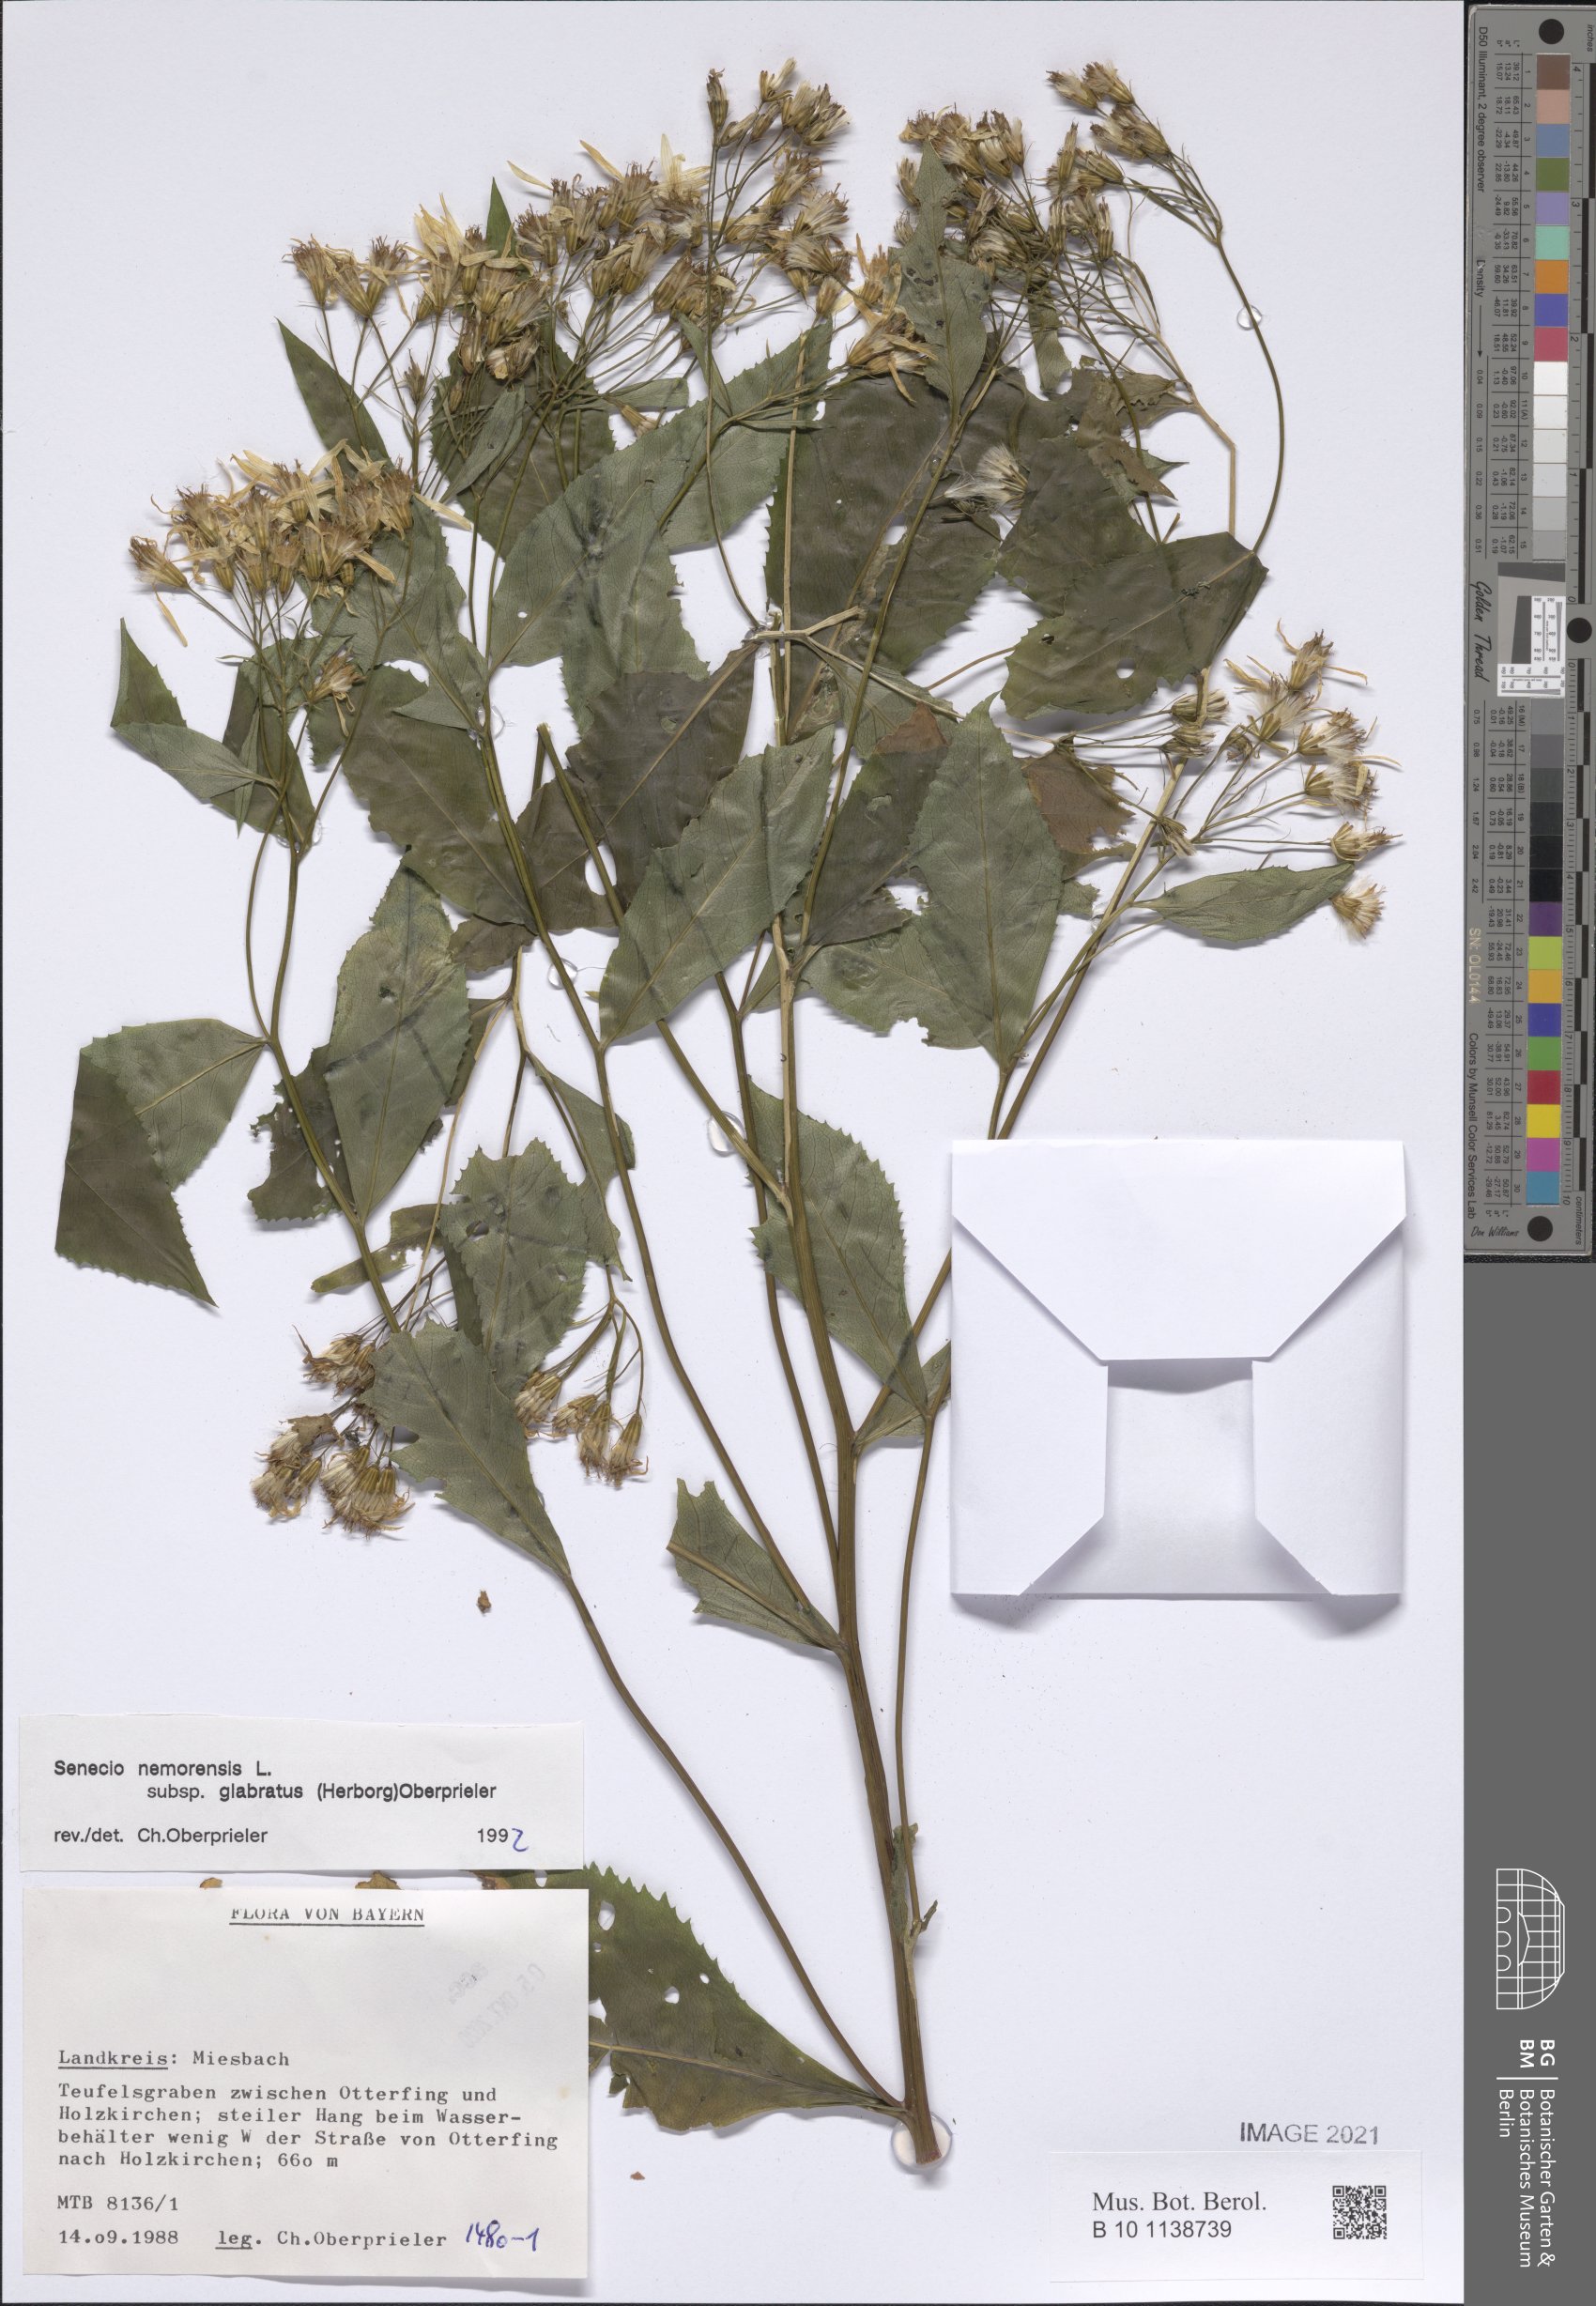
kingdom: Plantae
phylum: Tracheophyta
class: Magnoliopsida
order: Asterales
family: Asteraceae
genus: Senecio
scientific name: Senecio germanicus
